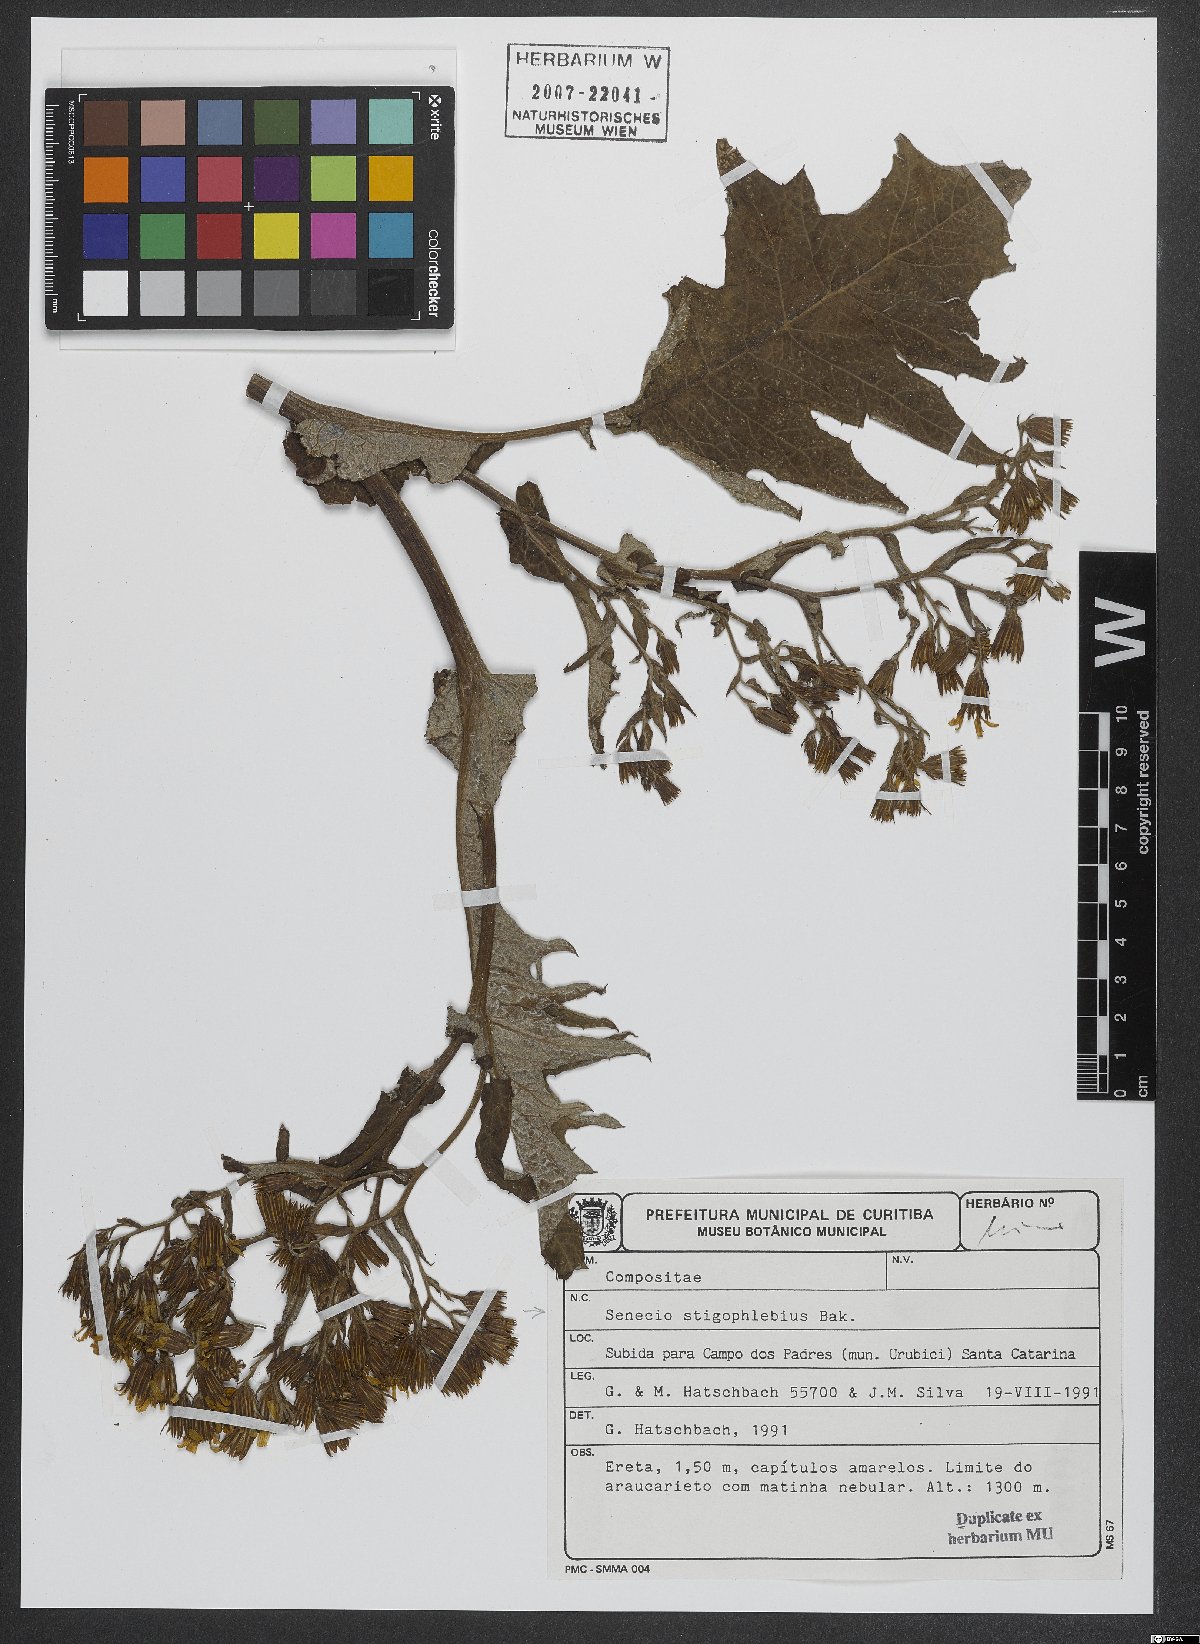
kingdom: Plantae
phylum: Tracheophyta
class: Magnoliopsida
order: Asterales
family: Asteraceae
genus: Senecio
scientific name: Senecio stigophlebius
